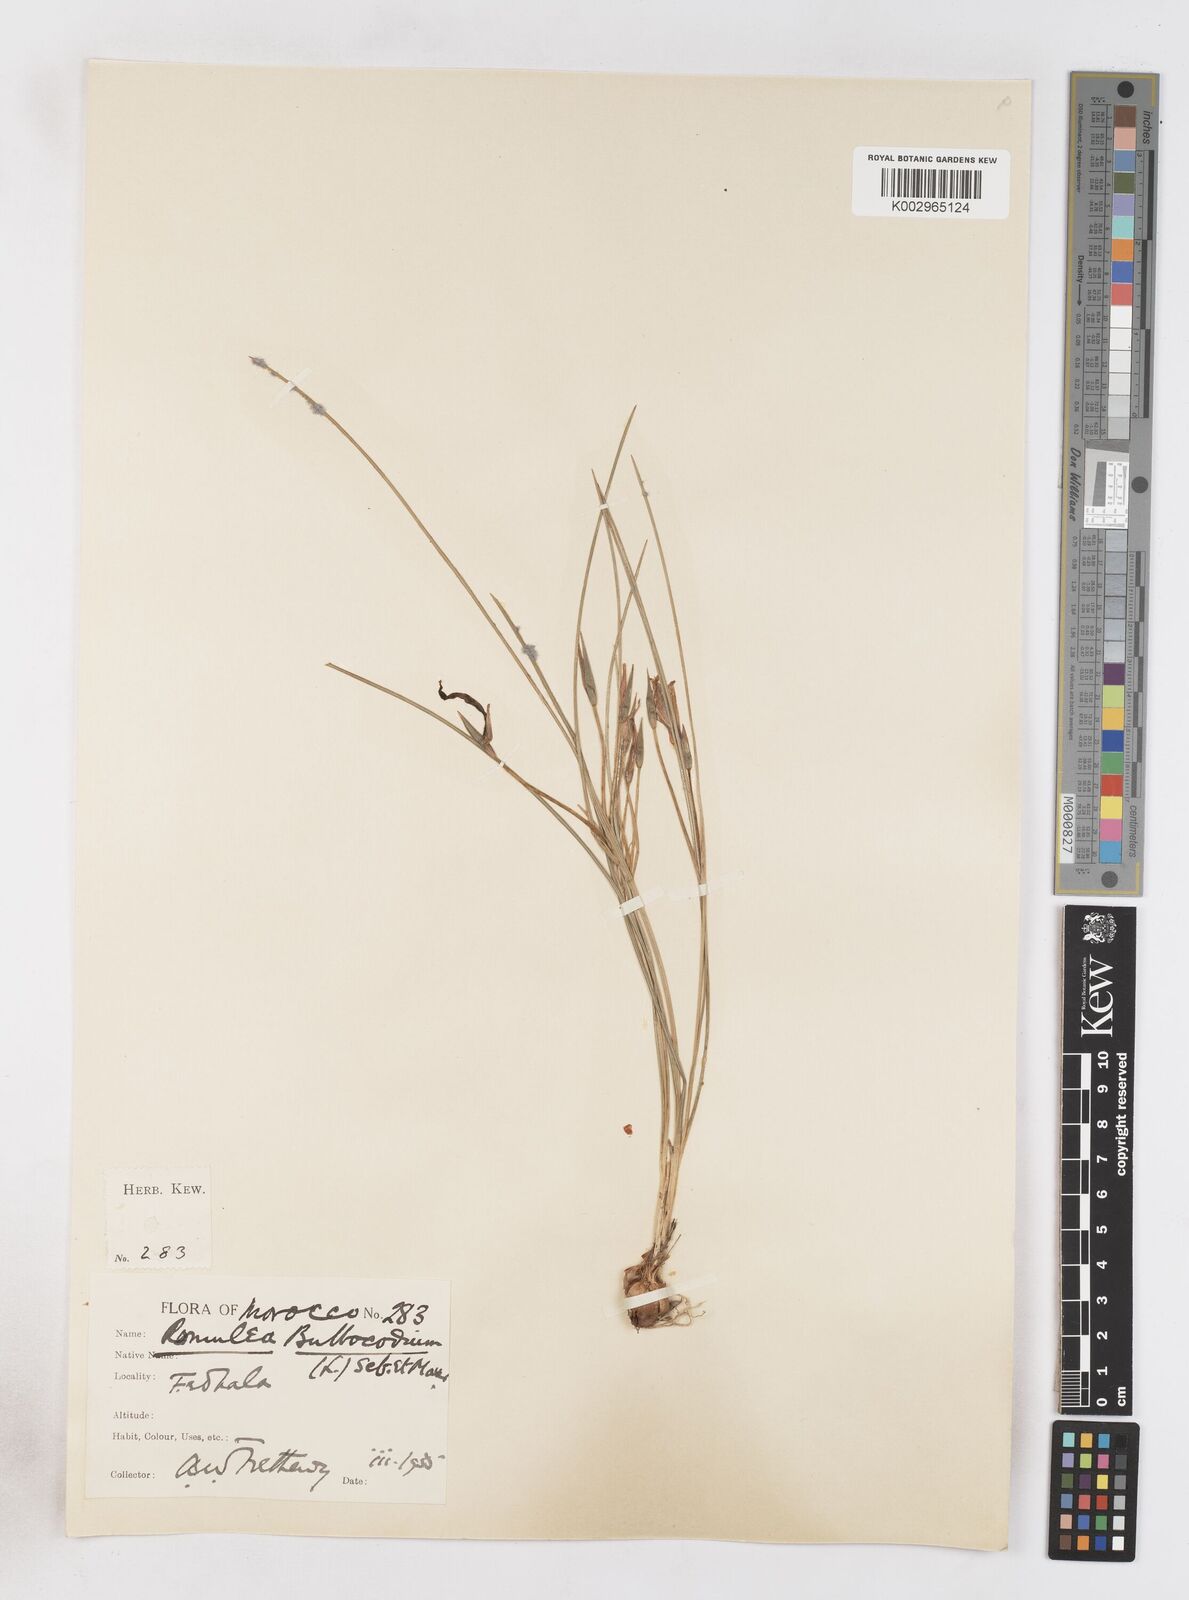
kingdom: Plantae
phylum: Tracheophyta
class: Liliopsida
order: Asparagales
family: Iridaceae
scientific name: Iridaceae
